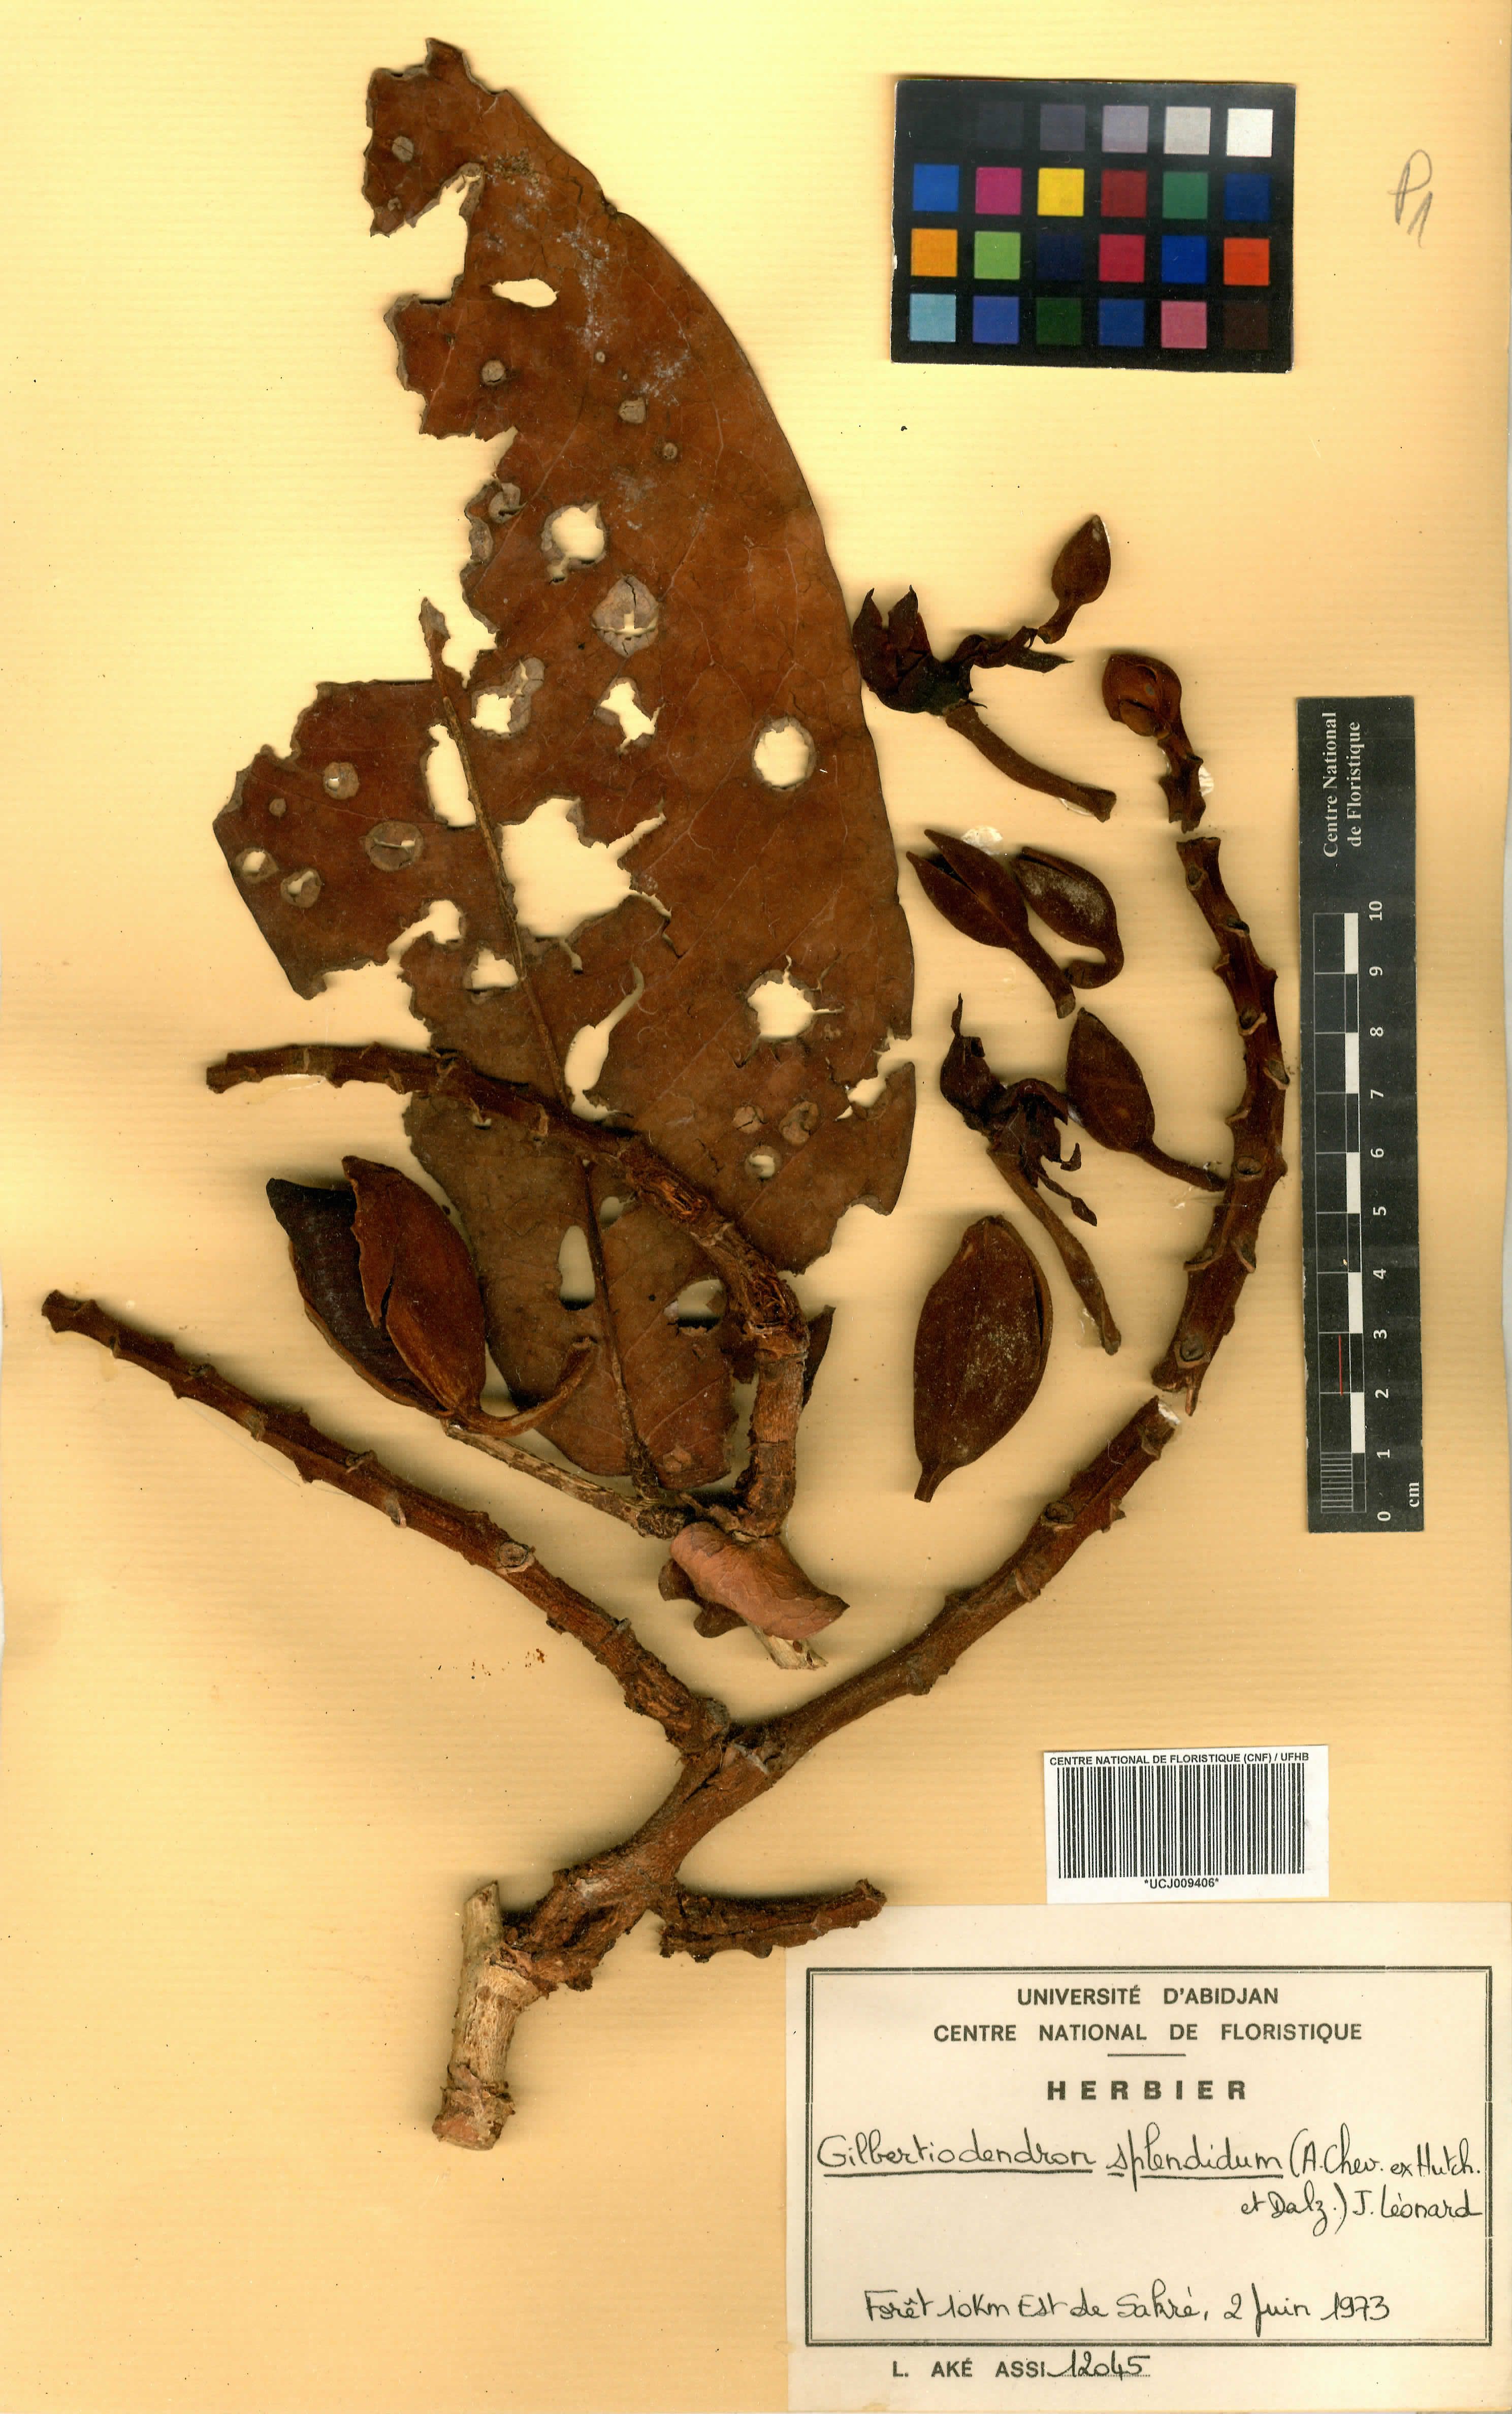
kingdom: Plantae
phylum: Tracheophyta
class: Magnoliopsida
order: Fabales
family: Fabaceae
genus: Gilbertiodendron
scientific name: Gilbertiodendron splendidum
